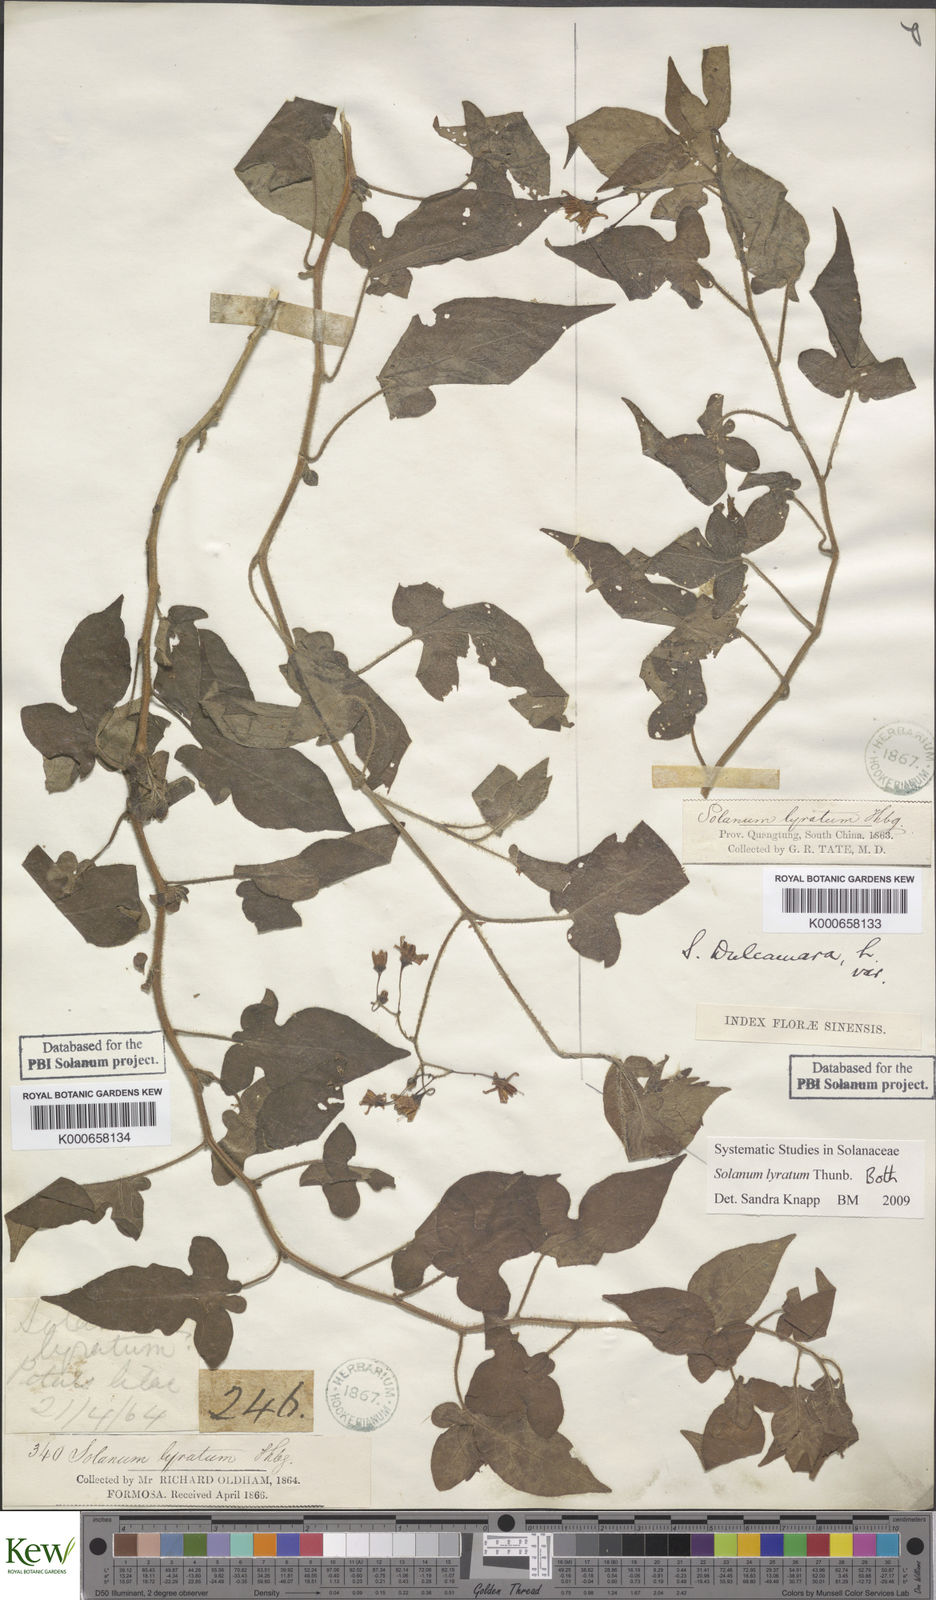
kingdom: Plantae
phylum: Tracheophyta
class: Magnoliopsida
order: Solanales
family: Solanaceae
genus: Solanum
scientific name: Solanum lyratum
